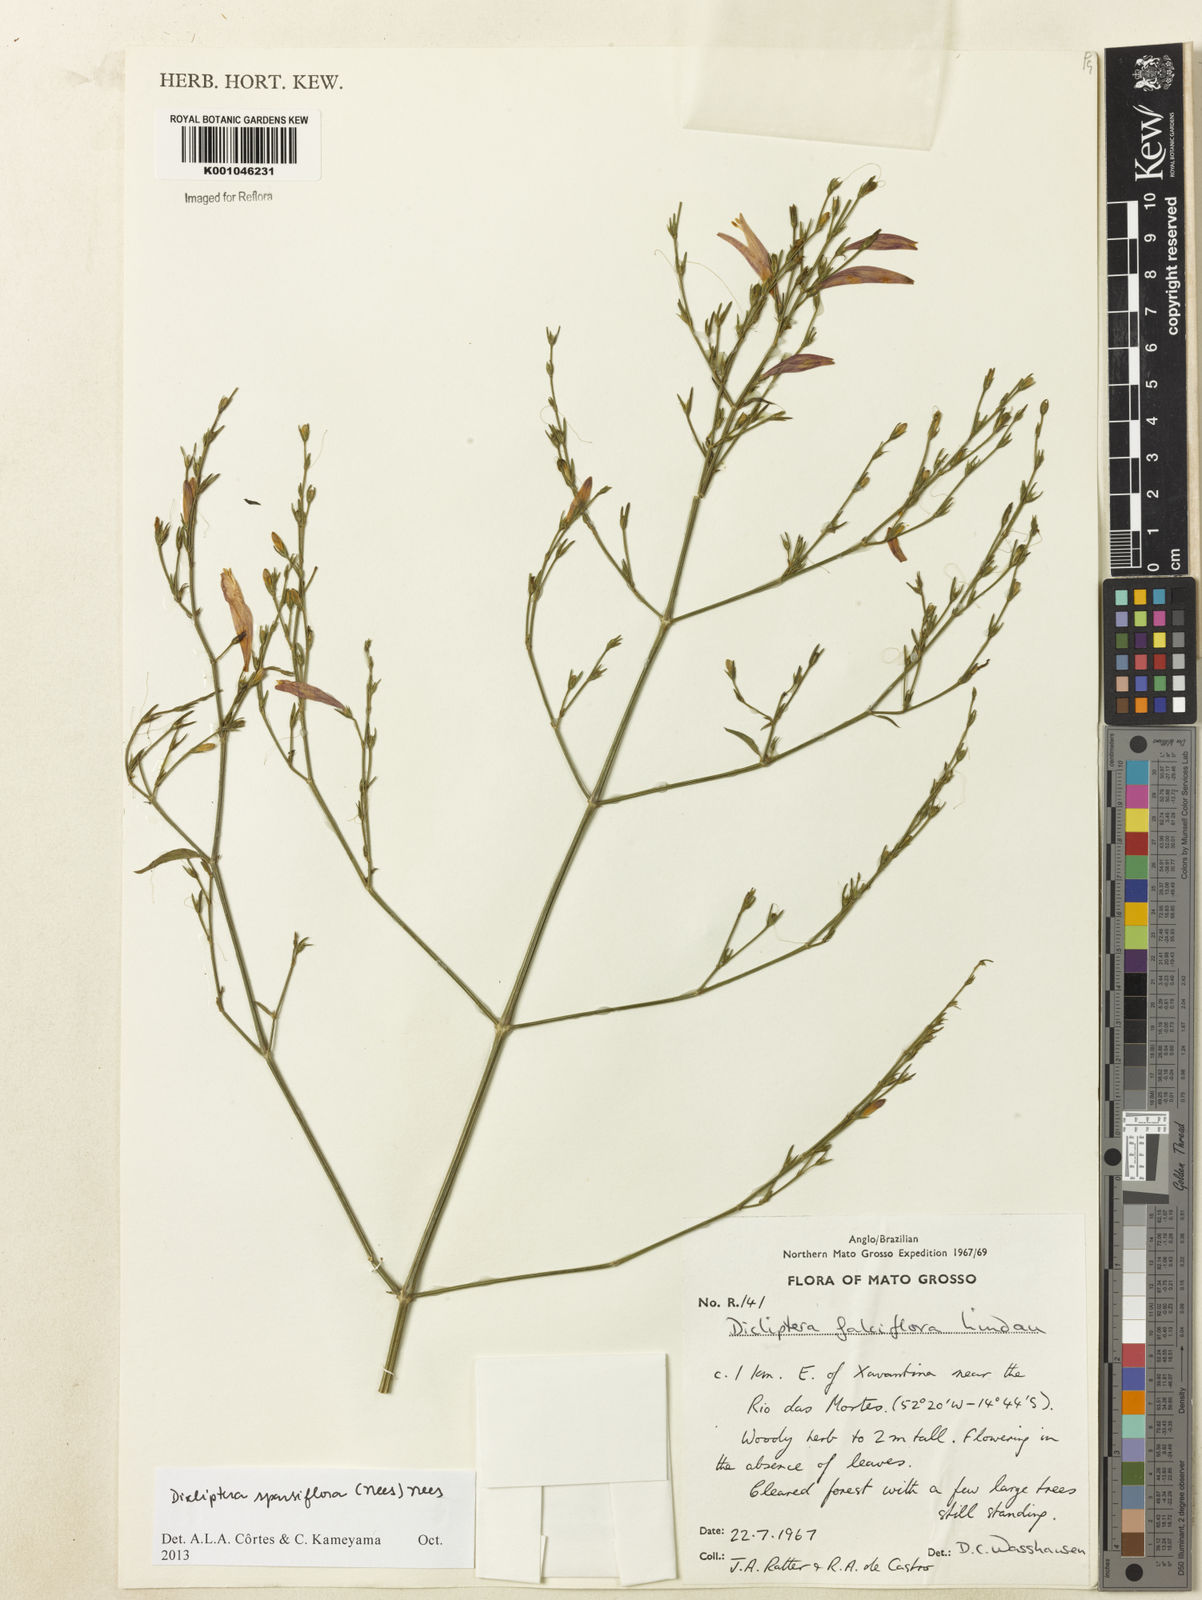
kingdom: Plantae
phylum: Tracheophyta
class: Magnoliopsida
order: Lamiales
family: Acanthaceae
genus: Dicliptera
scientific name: Dicliptera sparsiflora
